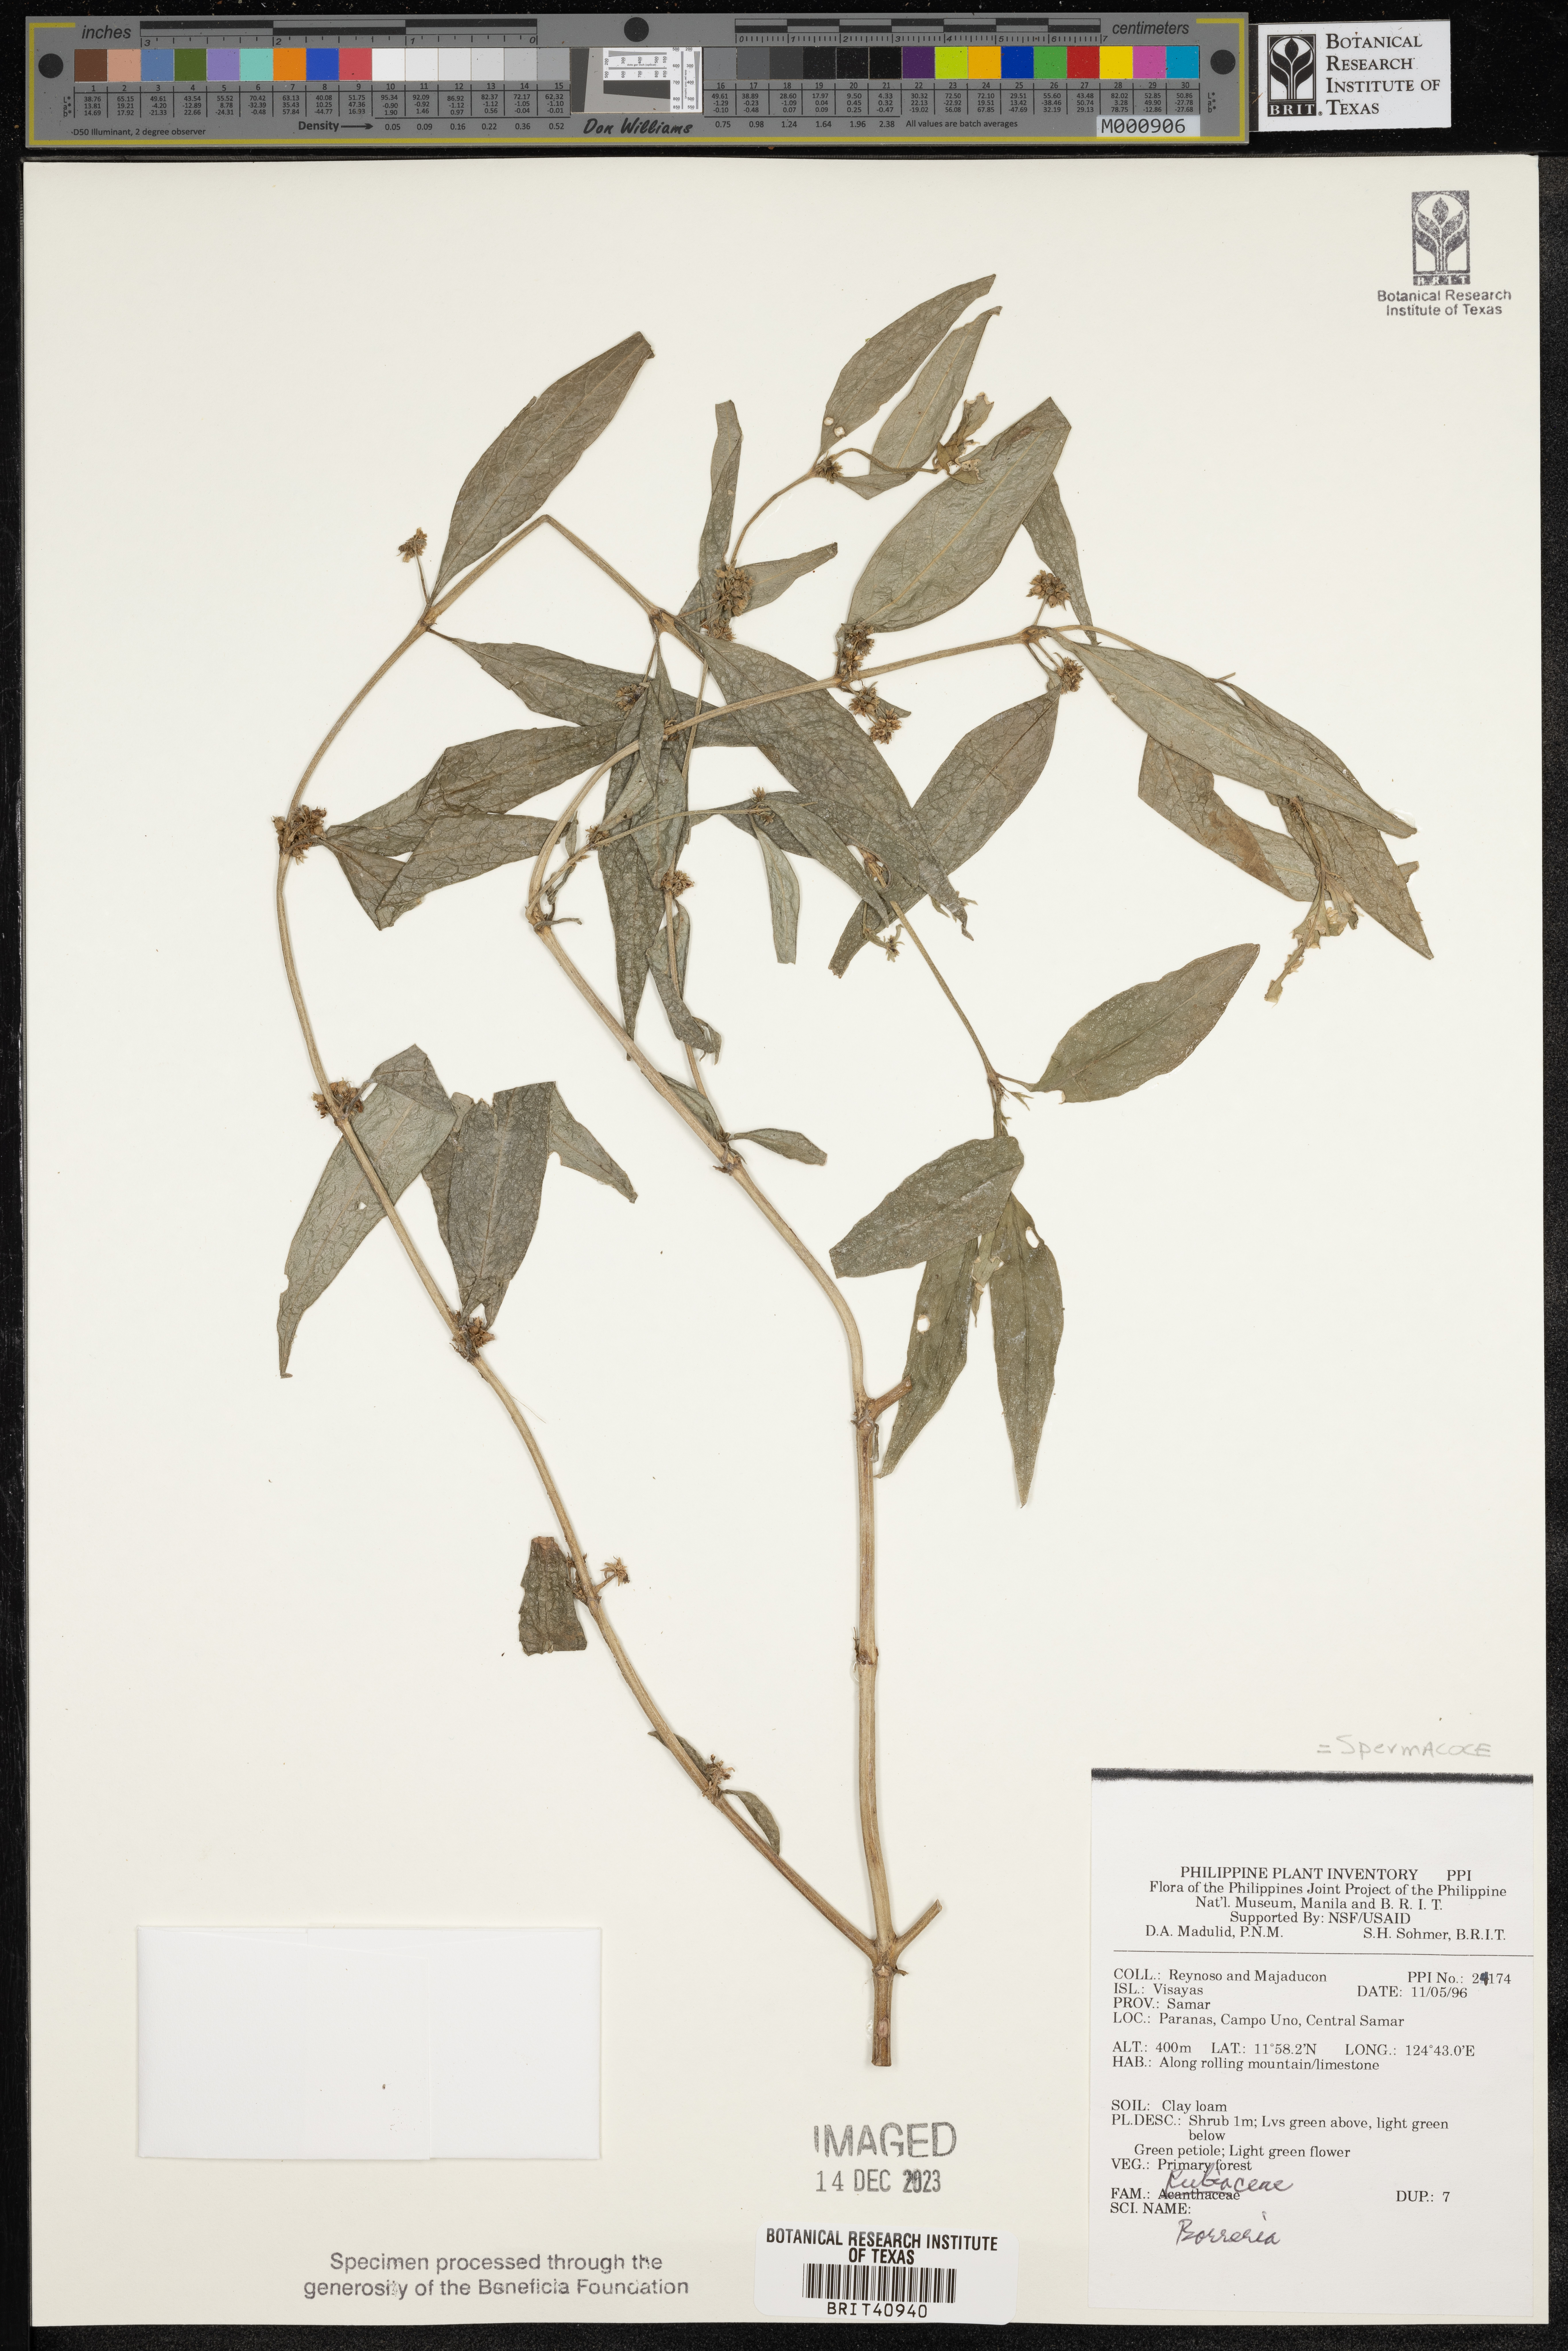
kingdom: Plantae
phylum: Tracheophyta
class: Magnoliopsida
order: Gentianales
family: Rubiaceae
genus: Spermacoce
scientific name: Spermacoce
